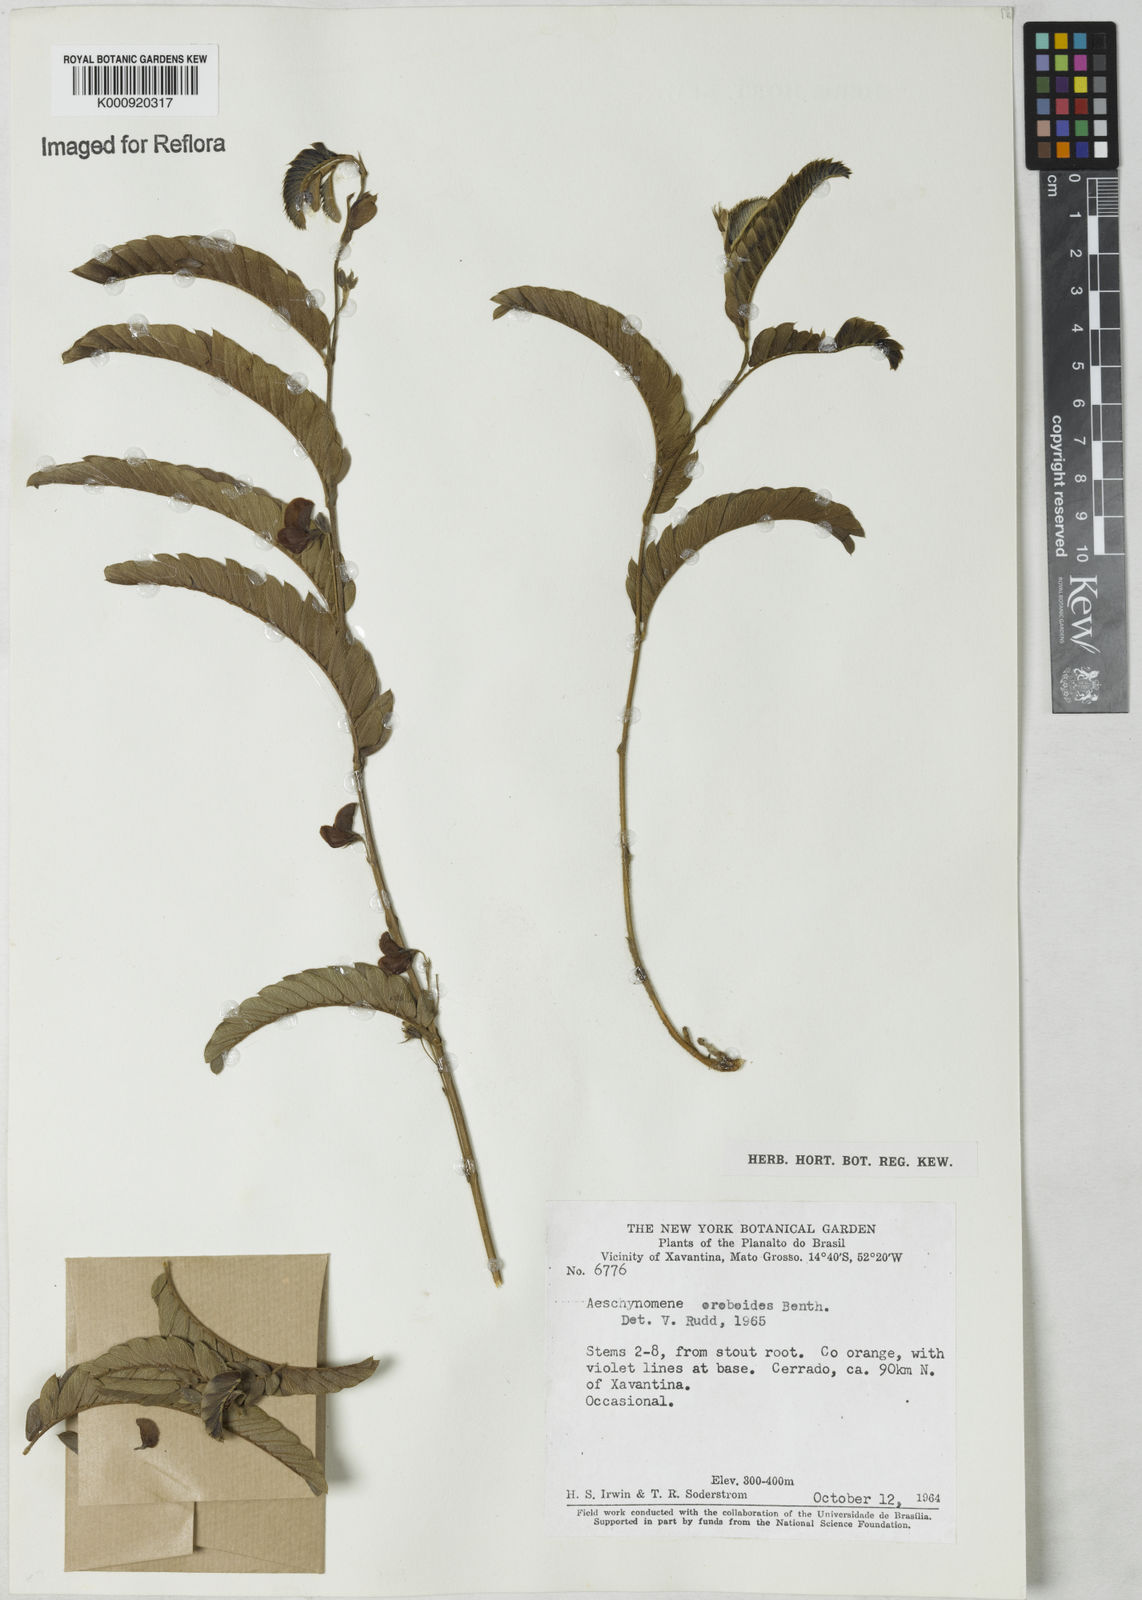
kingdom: Plantae
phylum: Tracheophyta
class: Magnoliopsida
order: Fabales
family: Fabaceae
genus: Ctenodon
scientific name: Ctenodon oroboides
